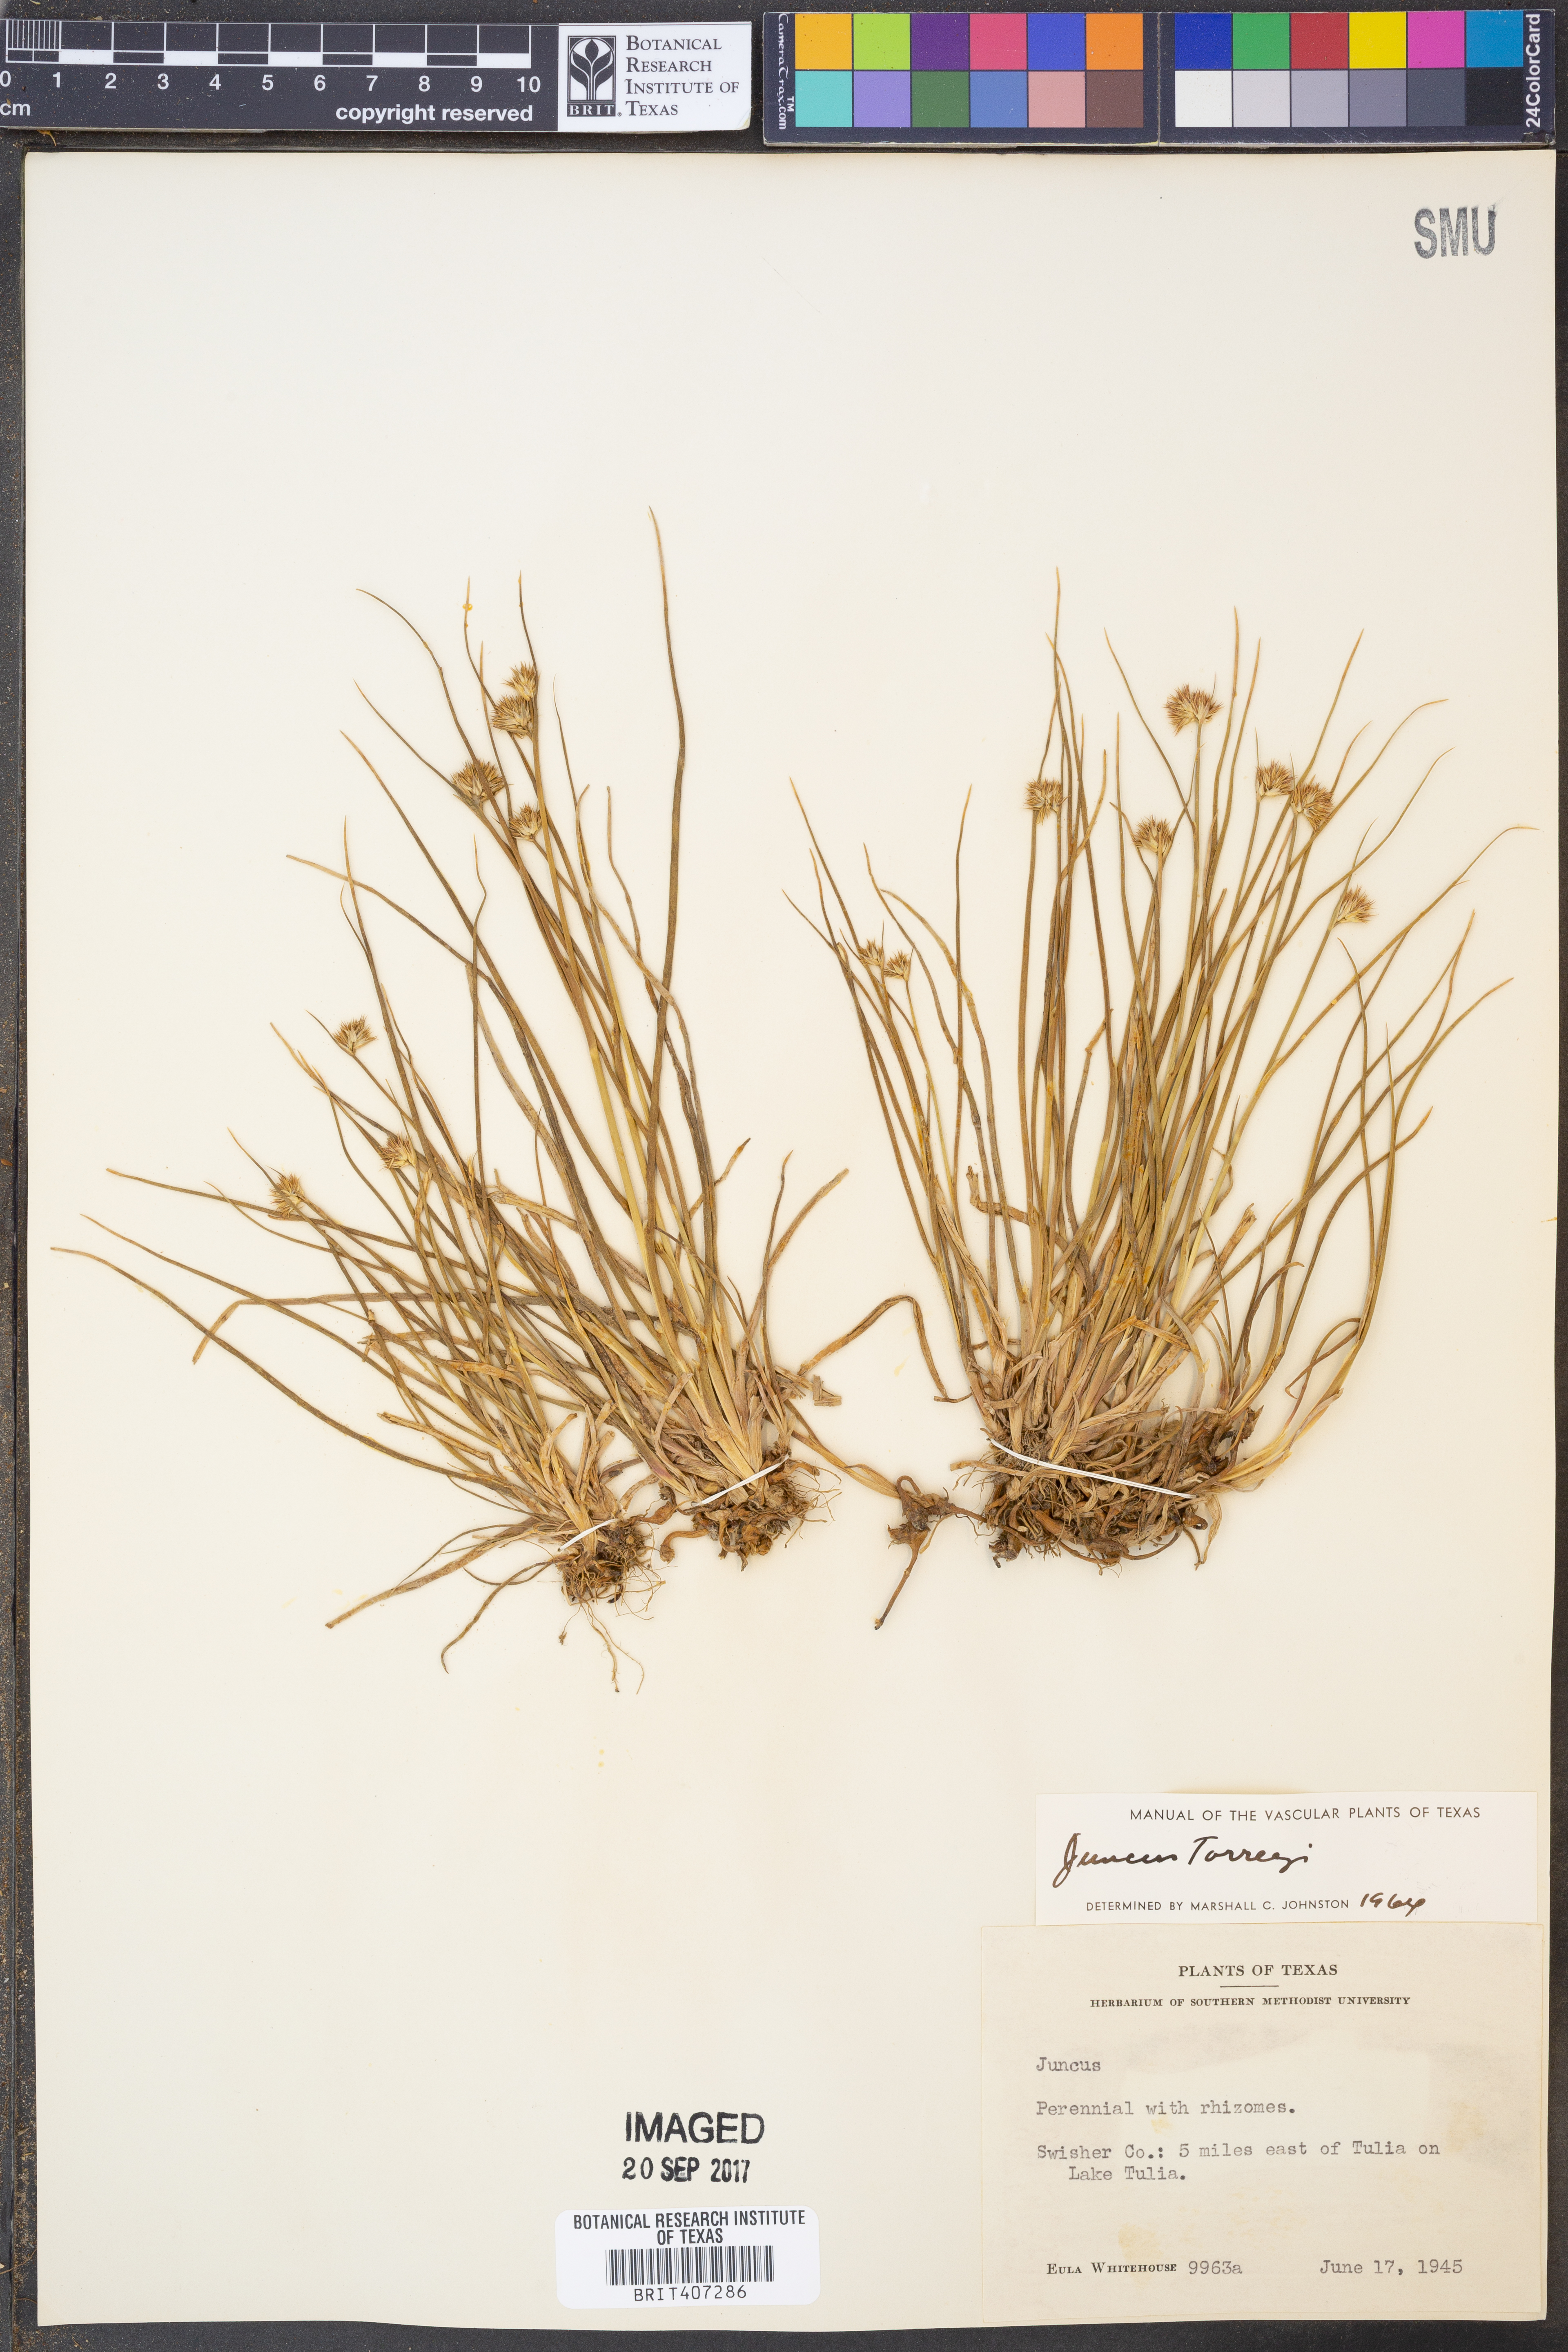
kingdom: Plantae
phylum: Tracheophyta
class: Liliopsida
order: Poales
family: Juncaceae
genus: Juncus
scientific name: Juncus torreyi
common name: Torrey's rush
